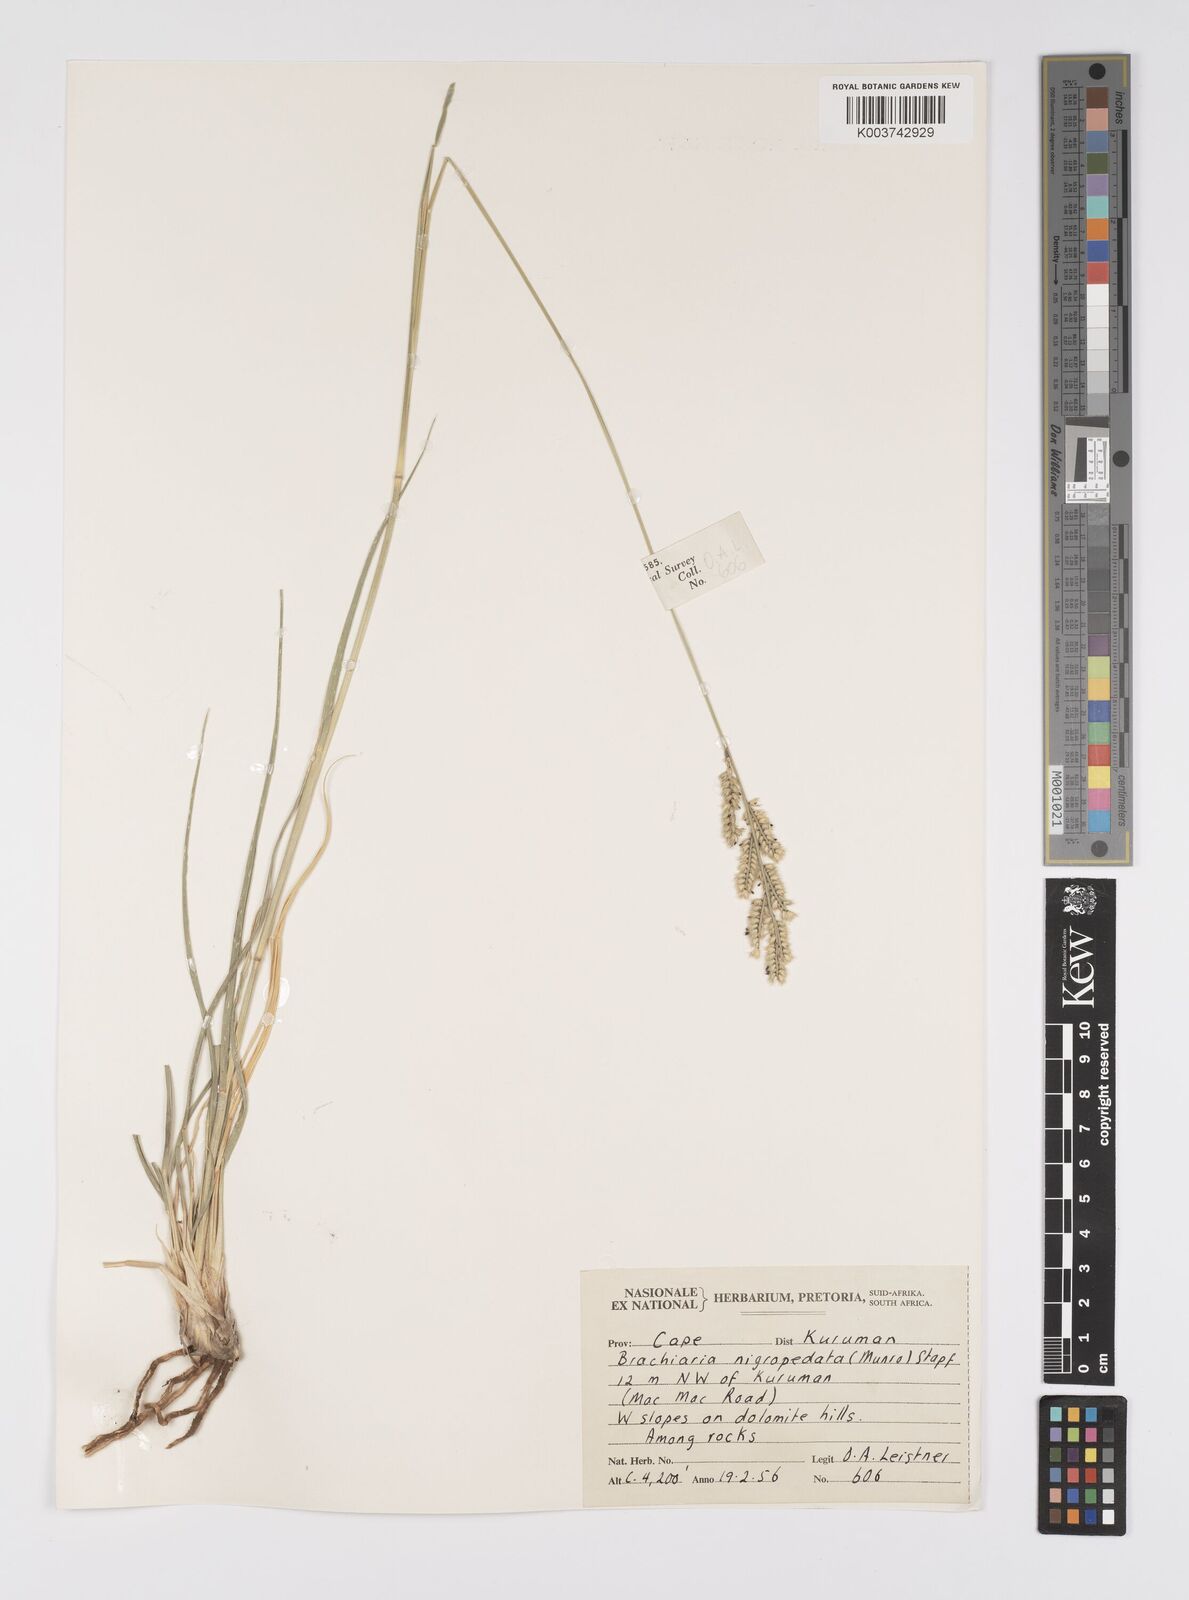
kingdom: Plantae
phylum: Tracheophyta
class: Liliopsida
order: Poales
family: Poaceae
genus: Urochloa
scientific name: Urochloa nigropedata
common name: Spotted signal grass
